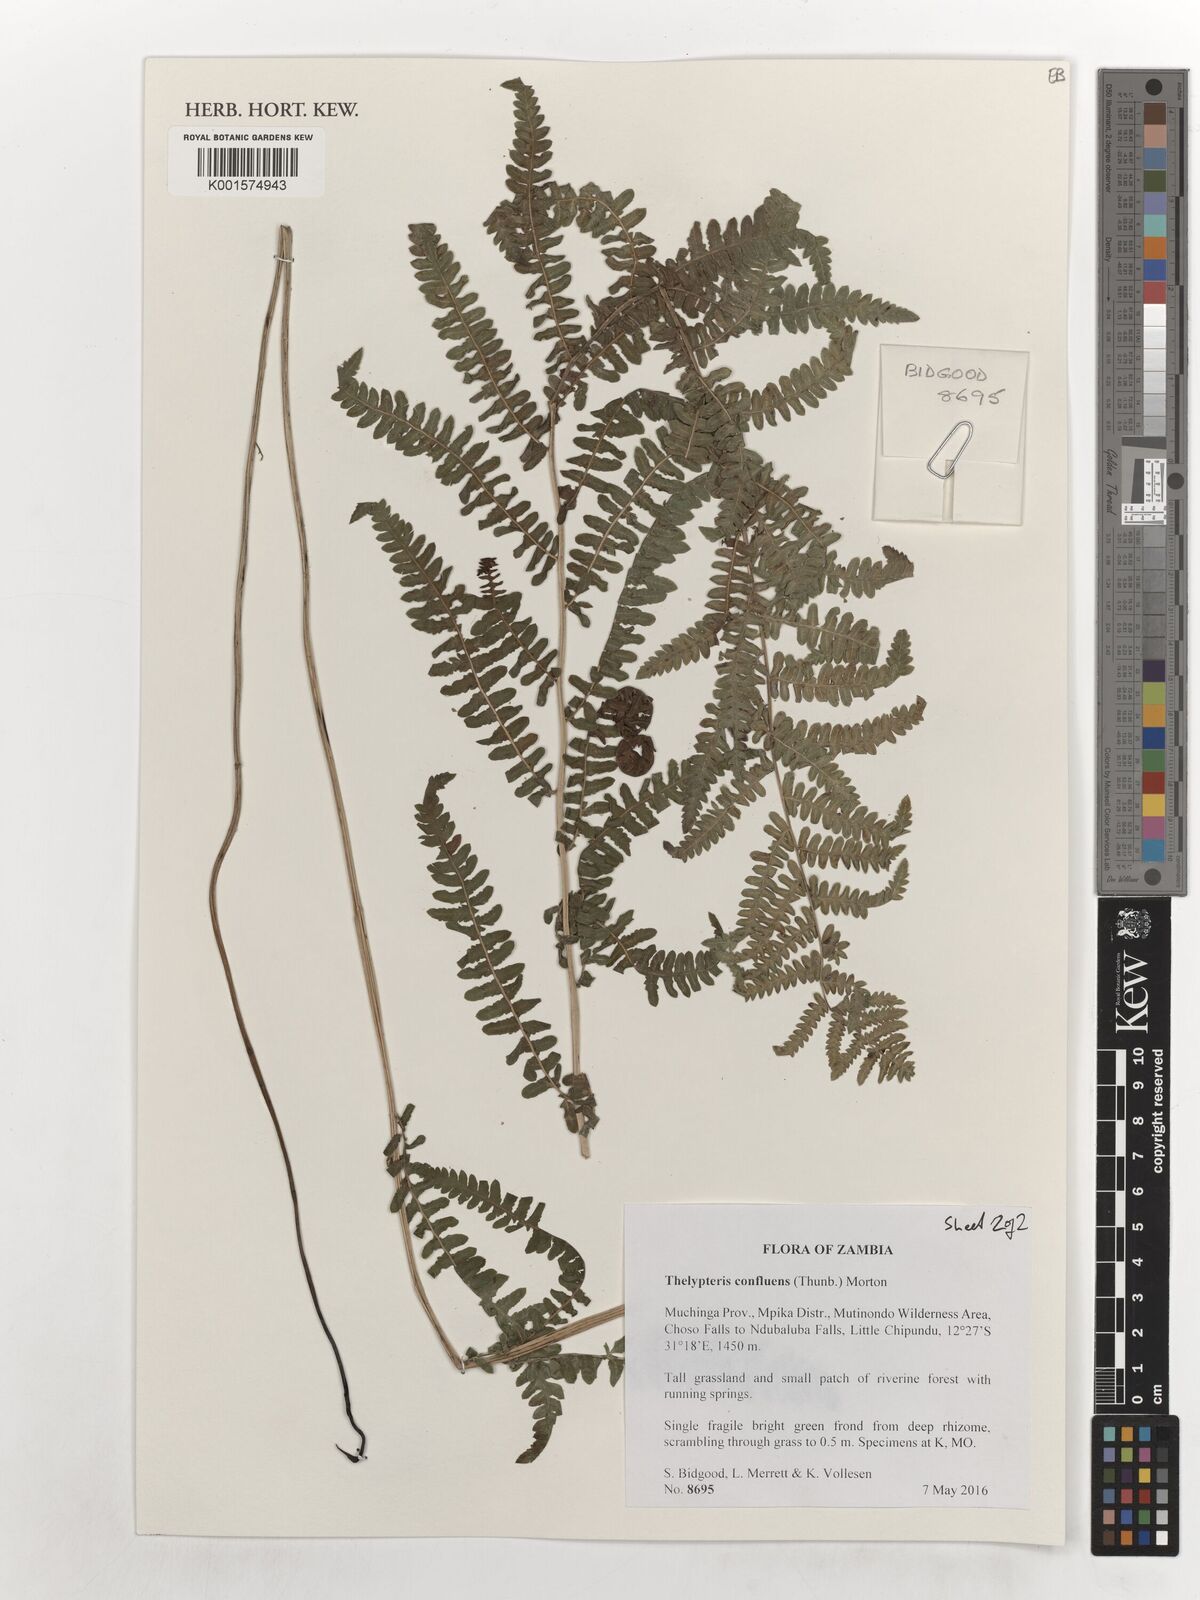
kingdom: Plantae
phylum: Tracheophyta
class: Polypodiopsida
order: Polypodiales
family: Thelypteridaceae
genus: Thelypteris
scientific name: Thelypteris confluens
